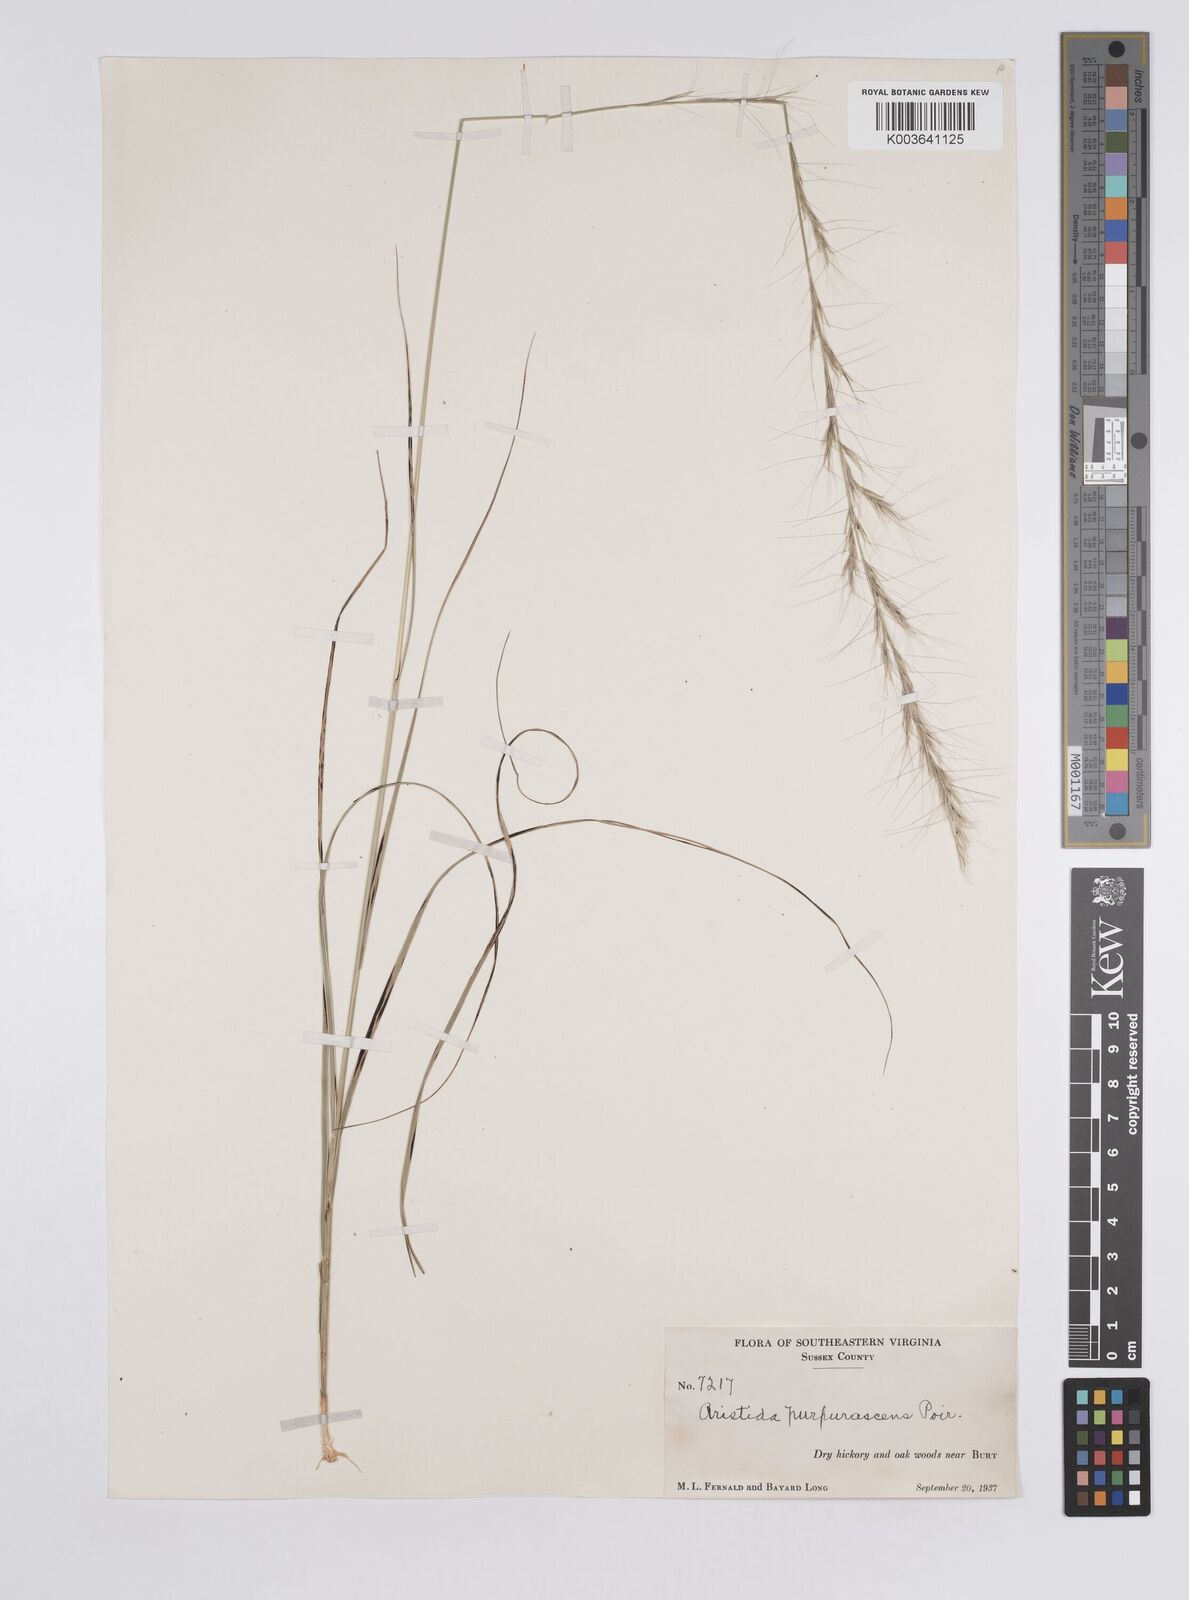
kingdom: Plantae
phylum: Tracheophyta
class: Liliopsida
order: Poales
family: Poaceae
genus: Aristida
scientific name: Aristida purpurascens
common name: Arrow-feather
